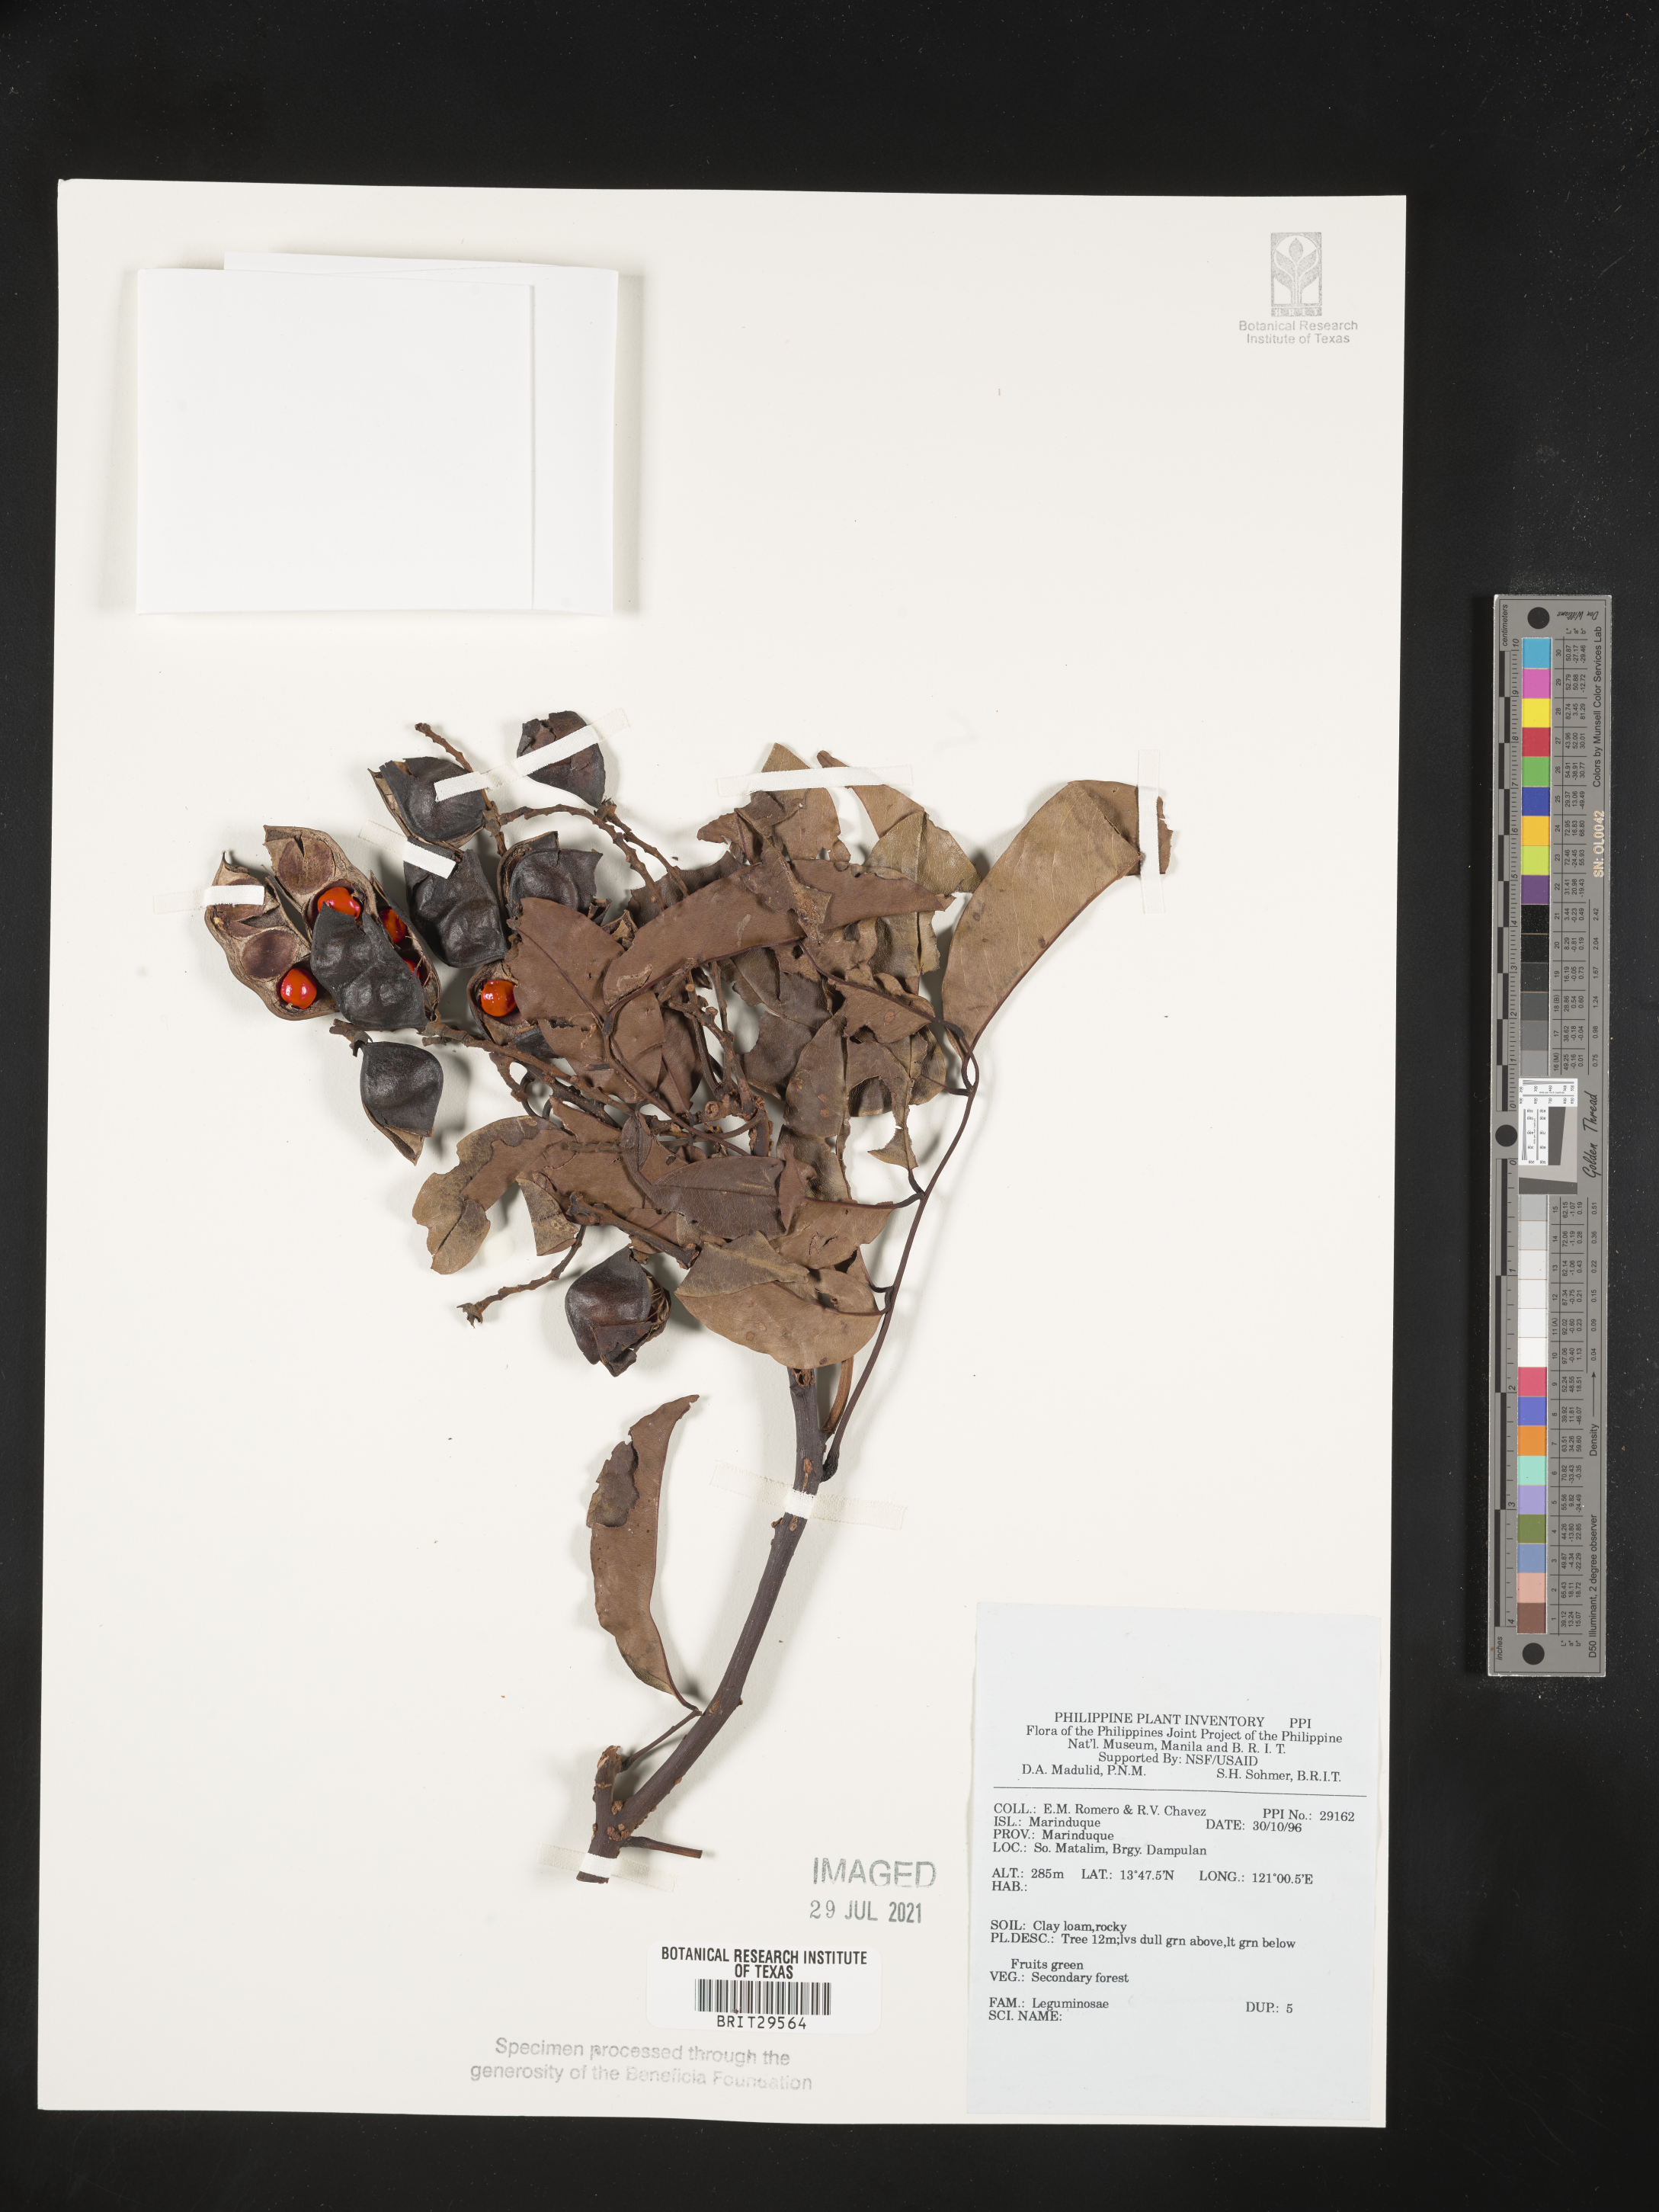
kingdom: Plantae
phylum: Tracheophyta
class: Magnoliopsida
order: Fabales
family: Fabaceae
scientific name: Fabaceae
